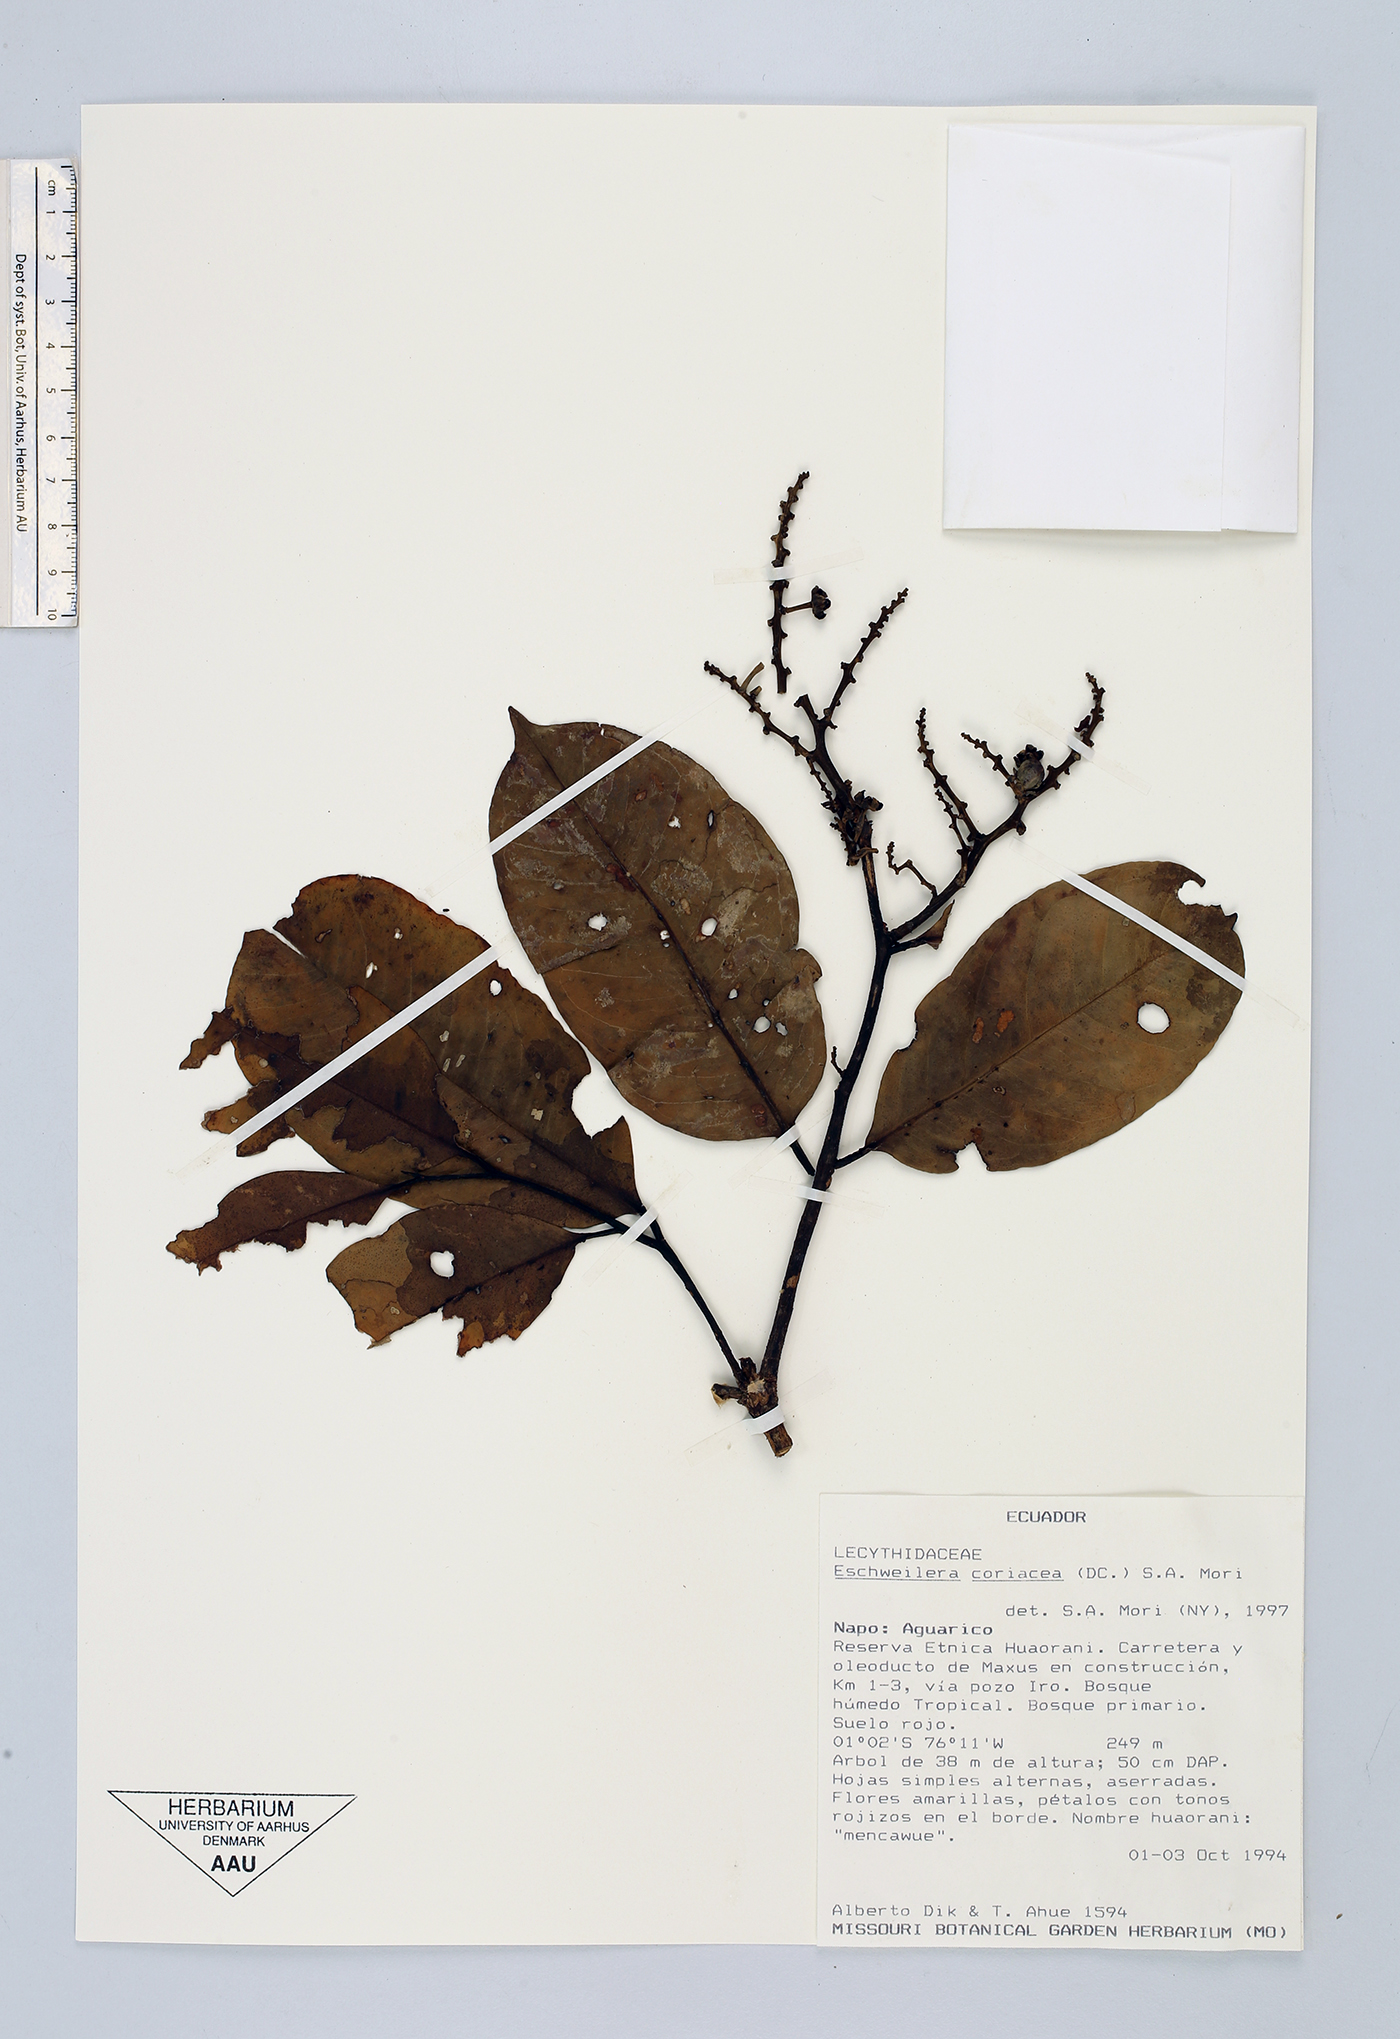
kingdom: Plantae
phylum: Tracheophyta
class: Magnoliopsida
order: Ericales
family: Lecythidaceae
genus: Eschweilera
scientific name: Eschweilera coriacea
